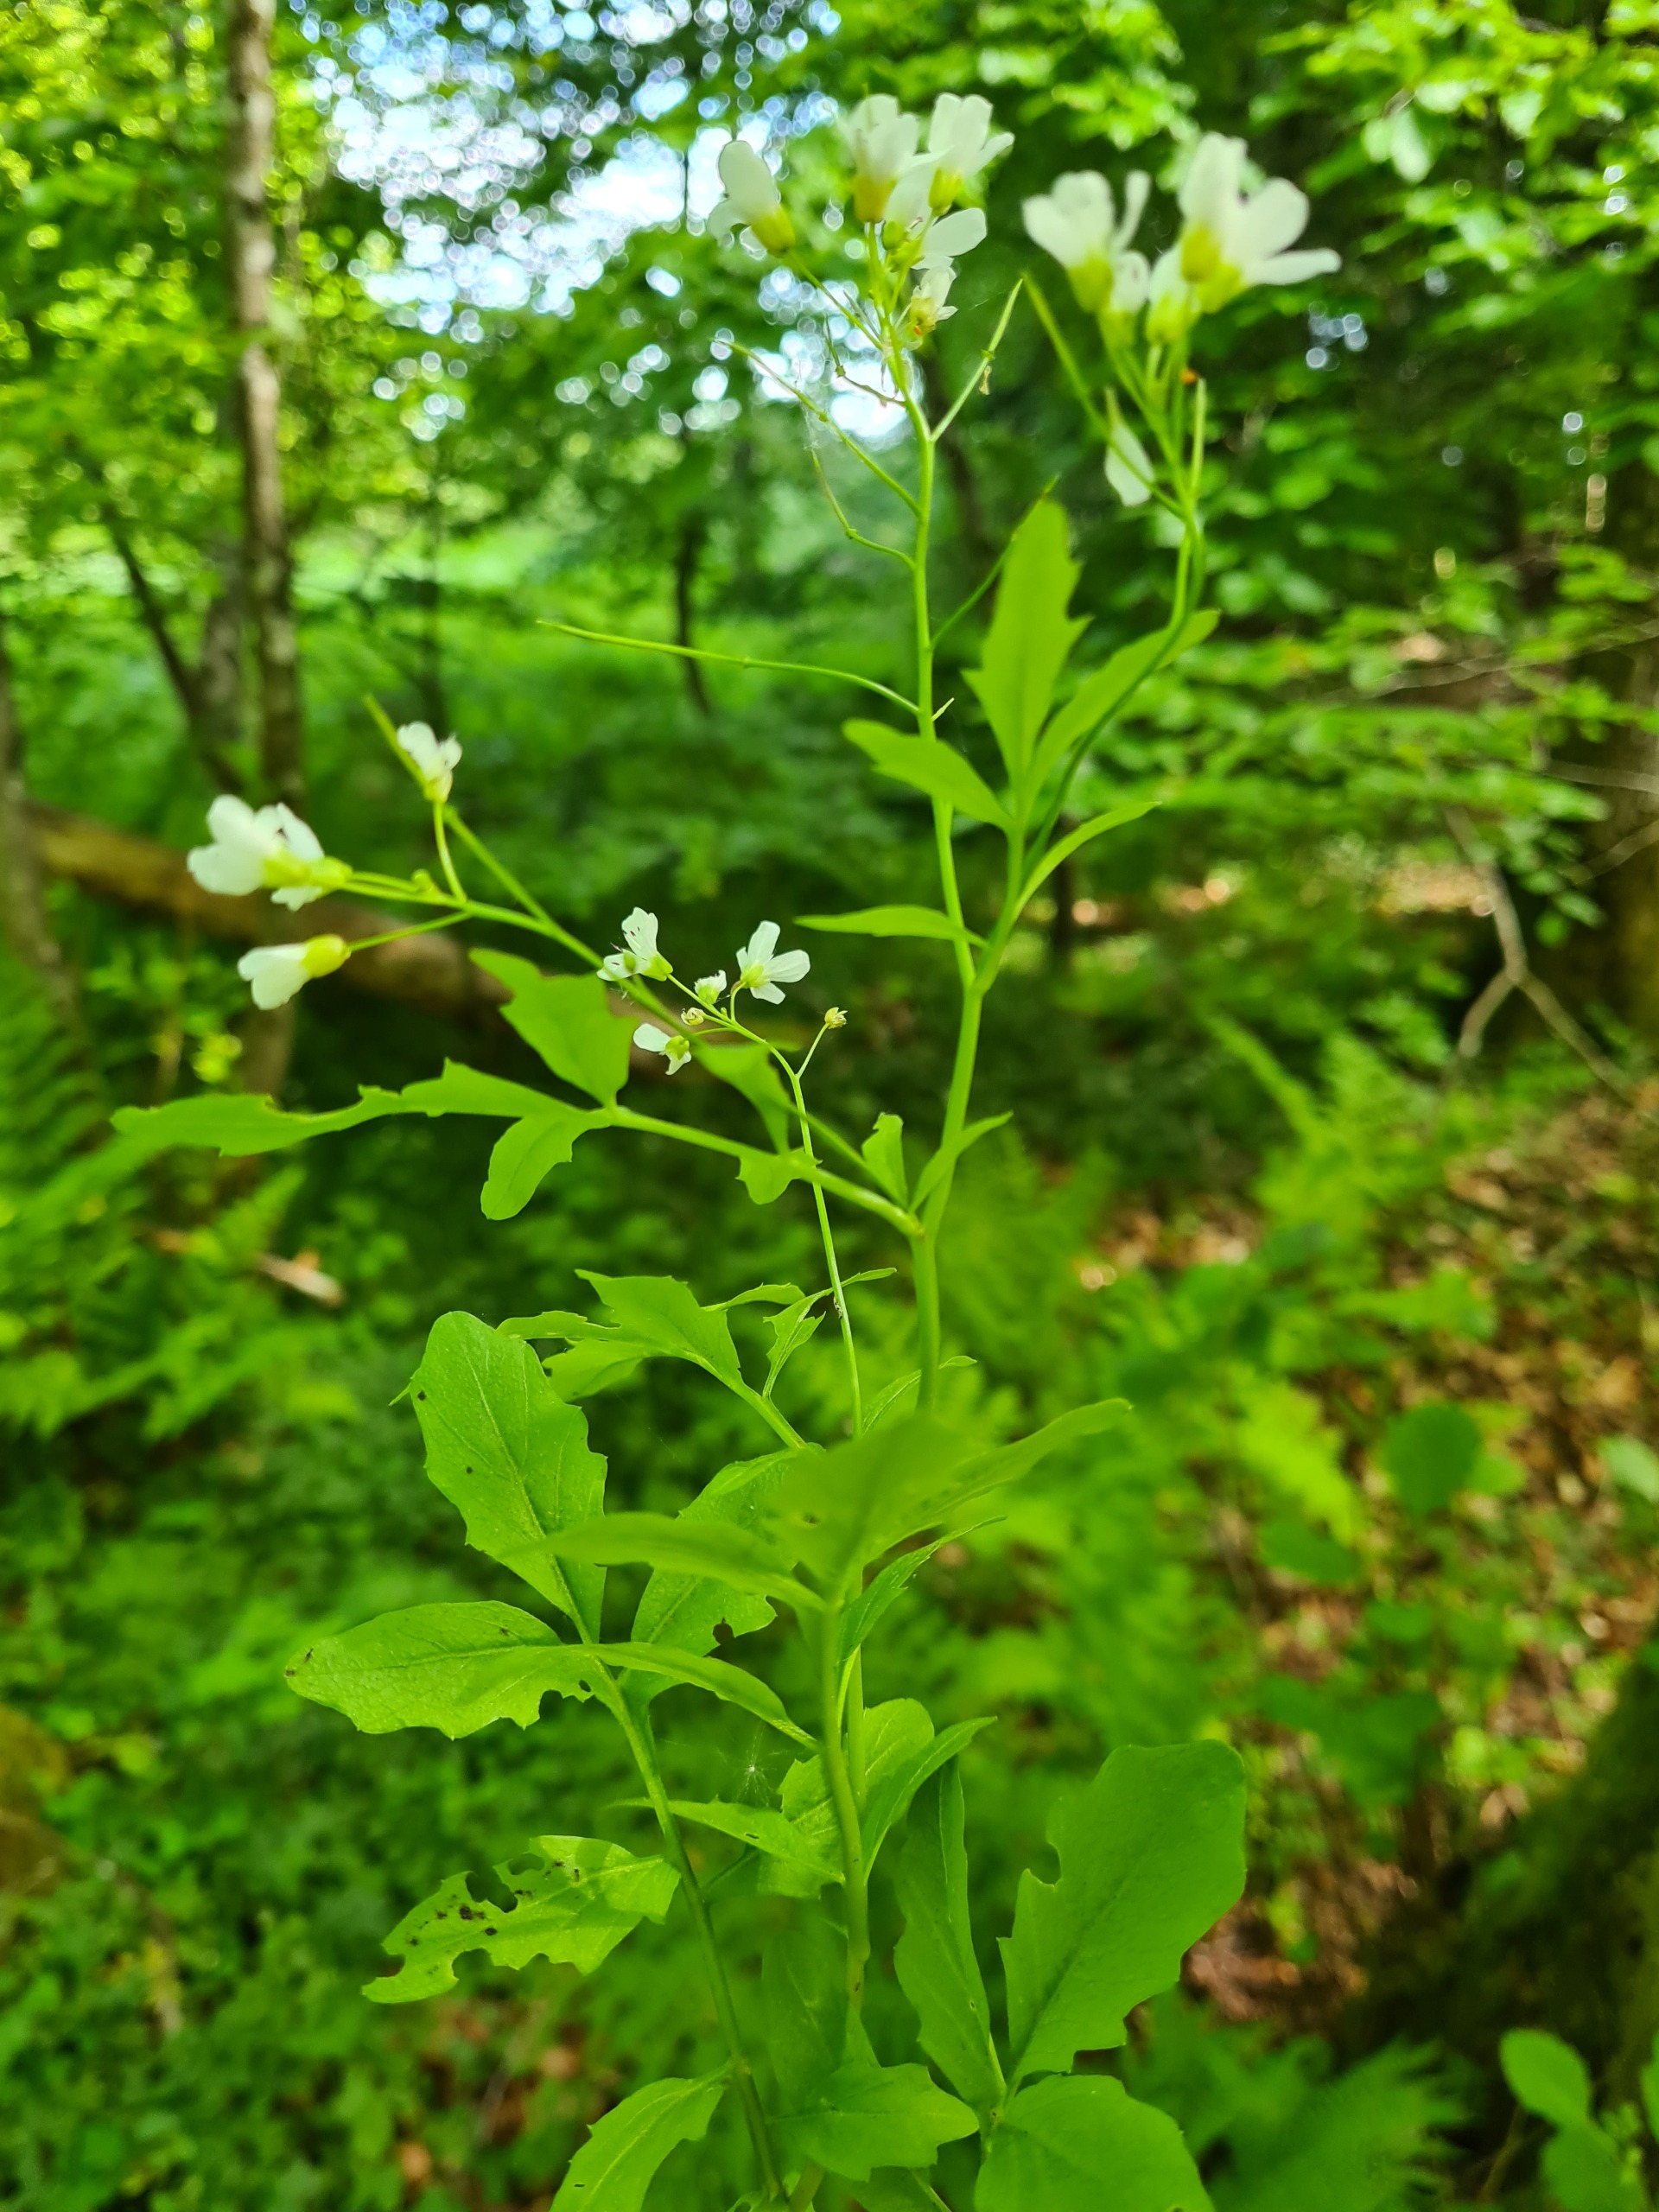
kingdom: Plantae
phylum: Tracheophyta
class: Magnoliopsida
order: Brassicales
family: Brassicaceae
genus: Cardamine
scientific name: Cardamine amara
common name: Vandkarse
